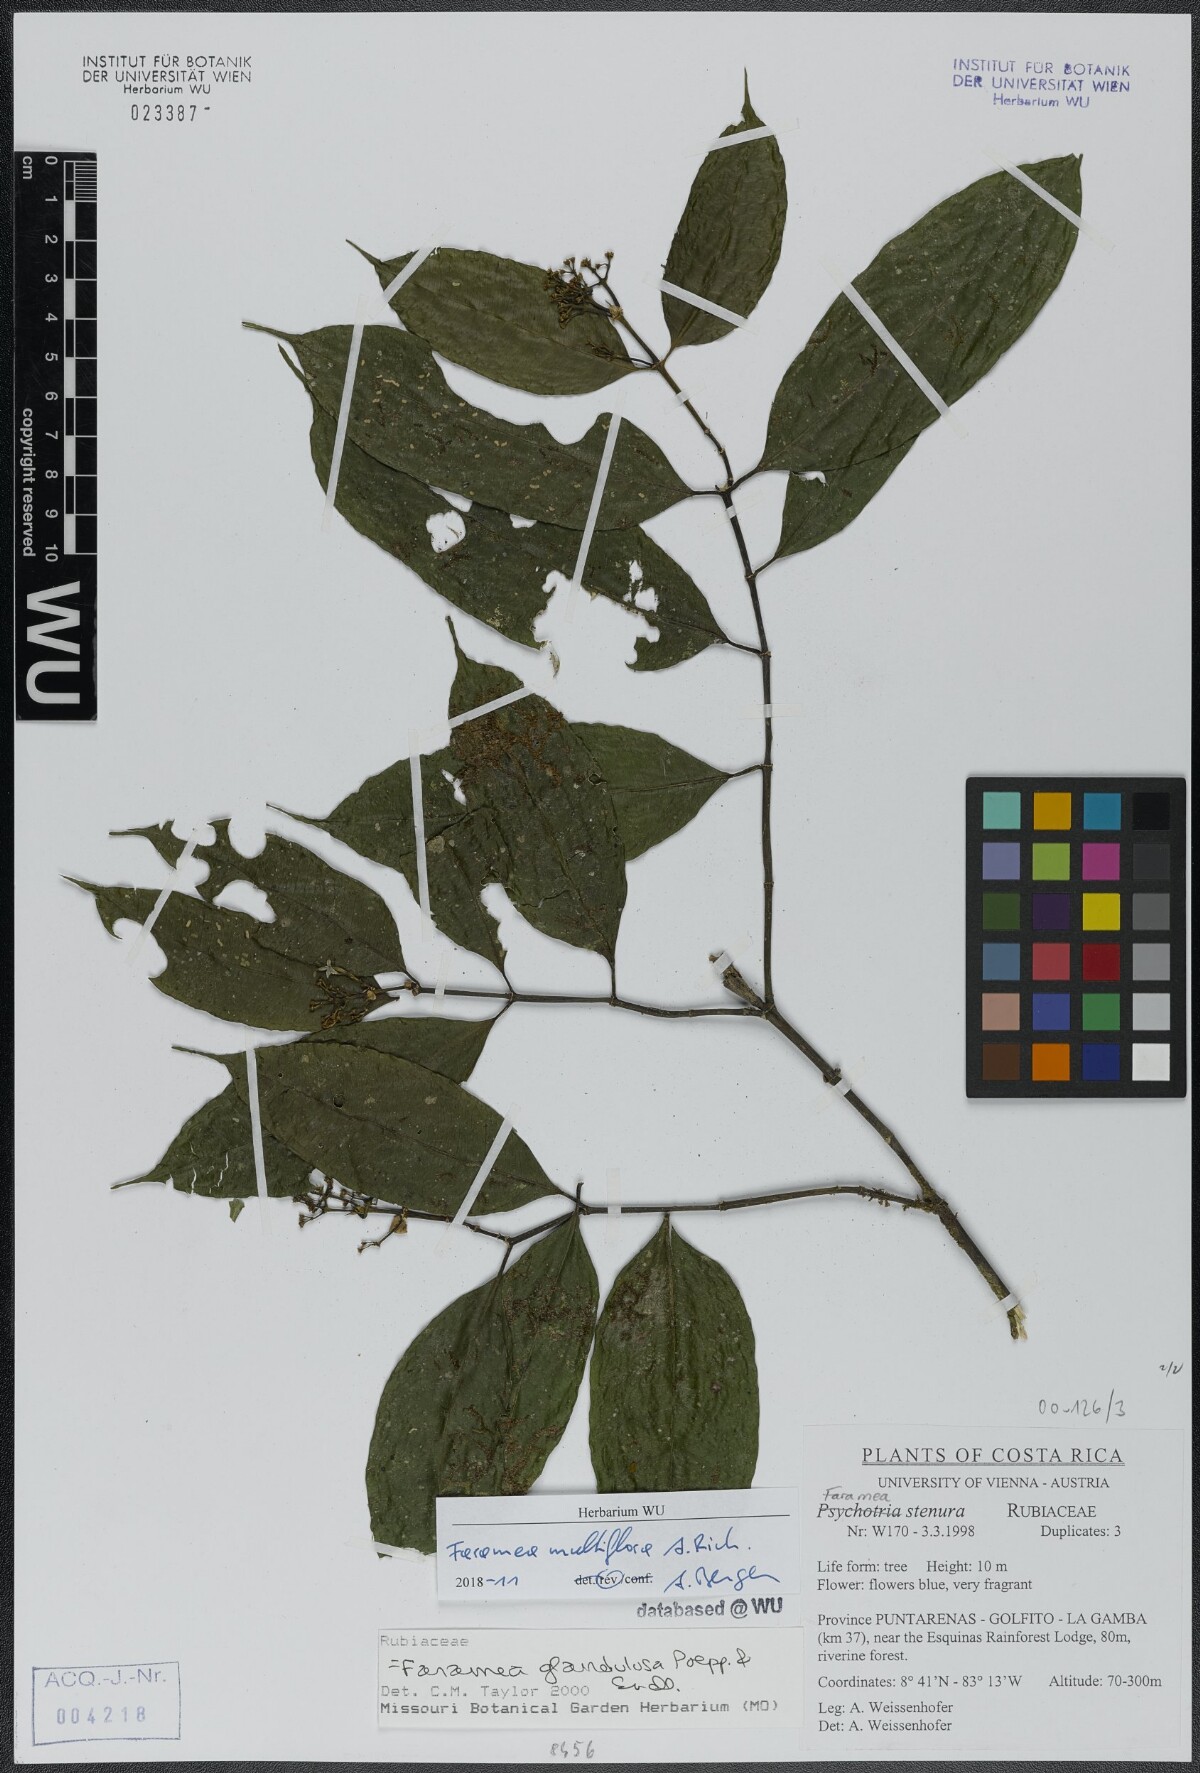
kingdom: Plantae
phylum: Tracheophyta
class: Magnoliopsida
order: Gentianales
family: Rubiaceae
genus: Faramea
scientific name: Faramea multiflora
